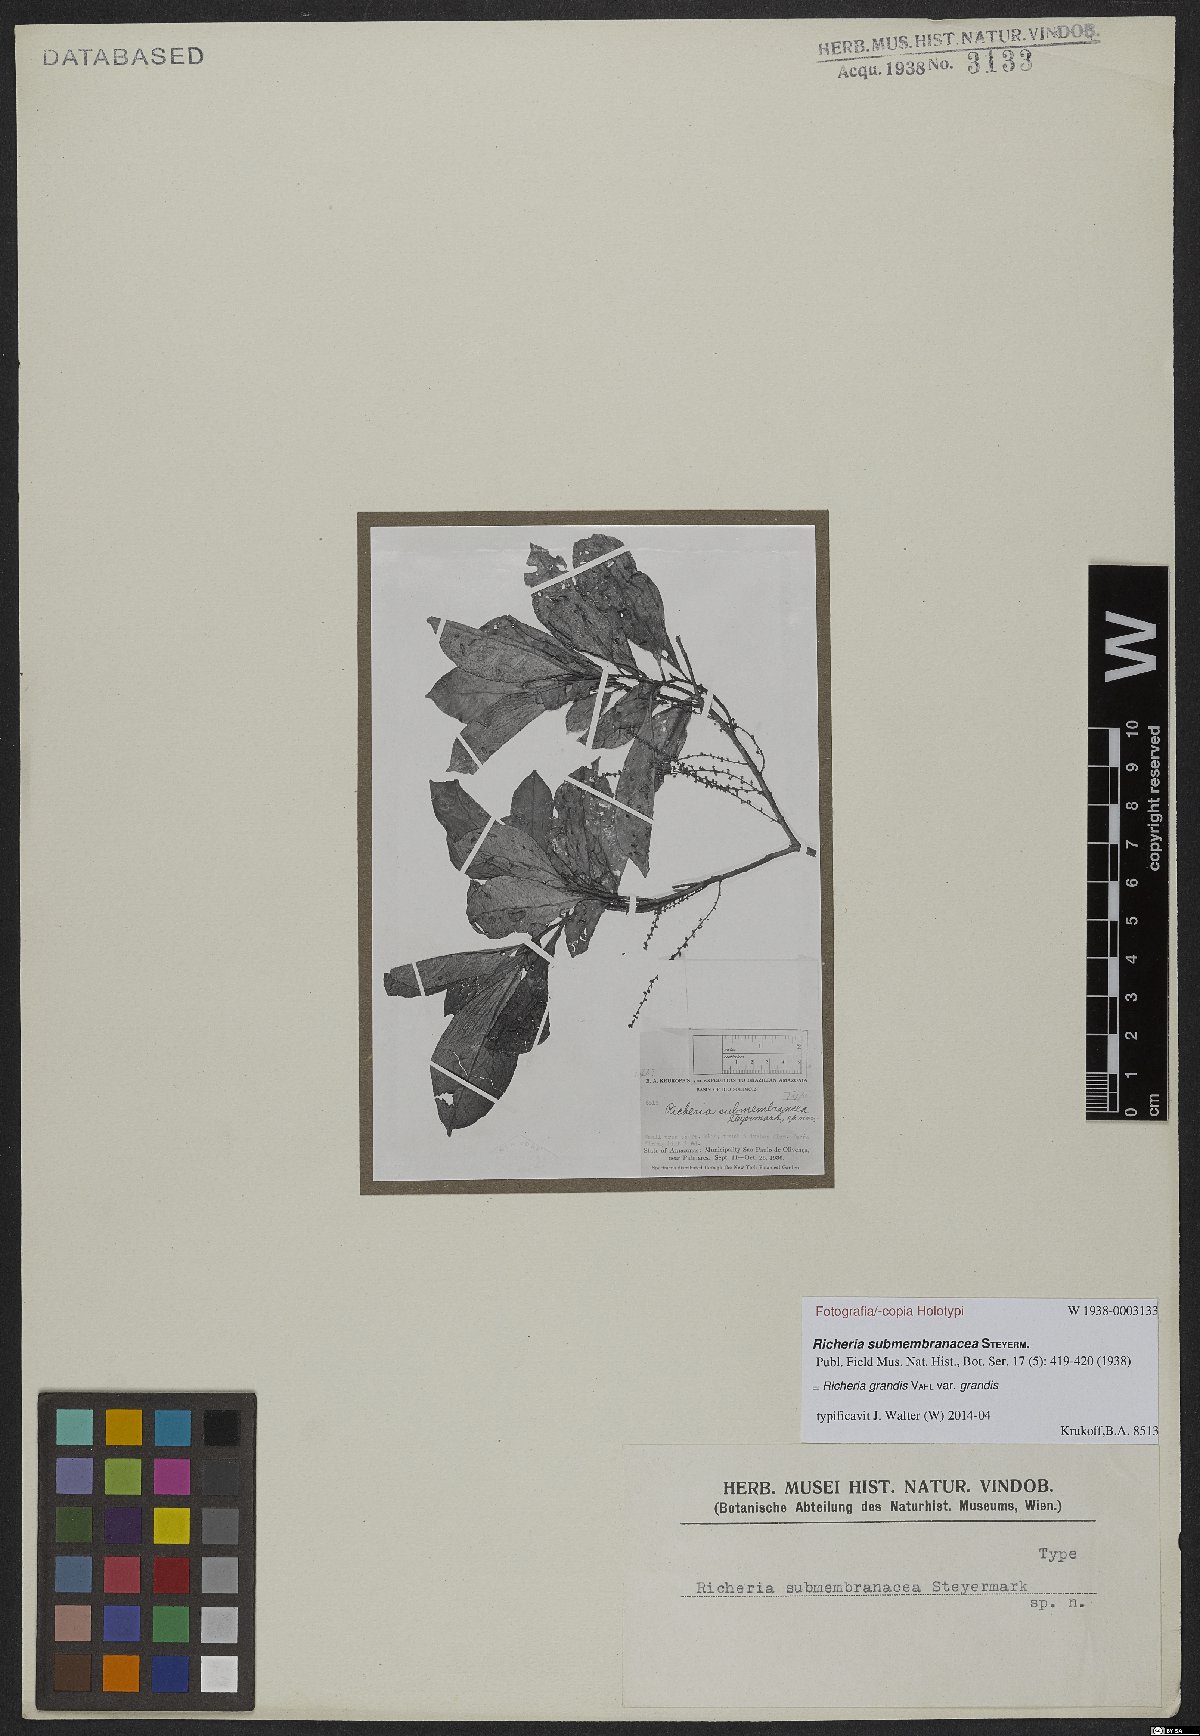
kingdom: Plantae
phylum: Tracheophyta
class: Magnoliopsida
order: Malpighiales
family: Phyllanthaceae
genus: Richeria
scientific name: Richeria grandis
